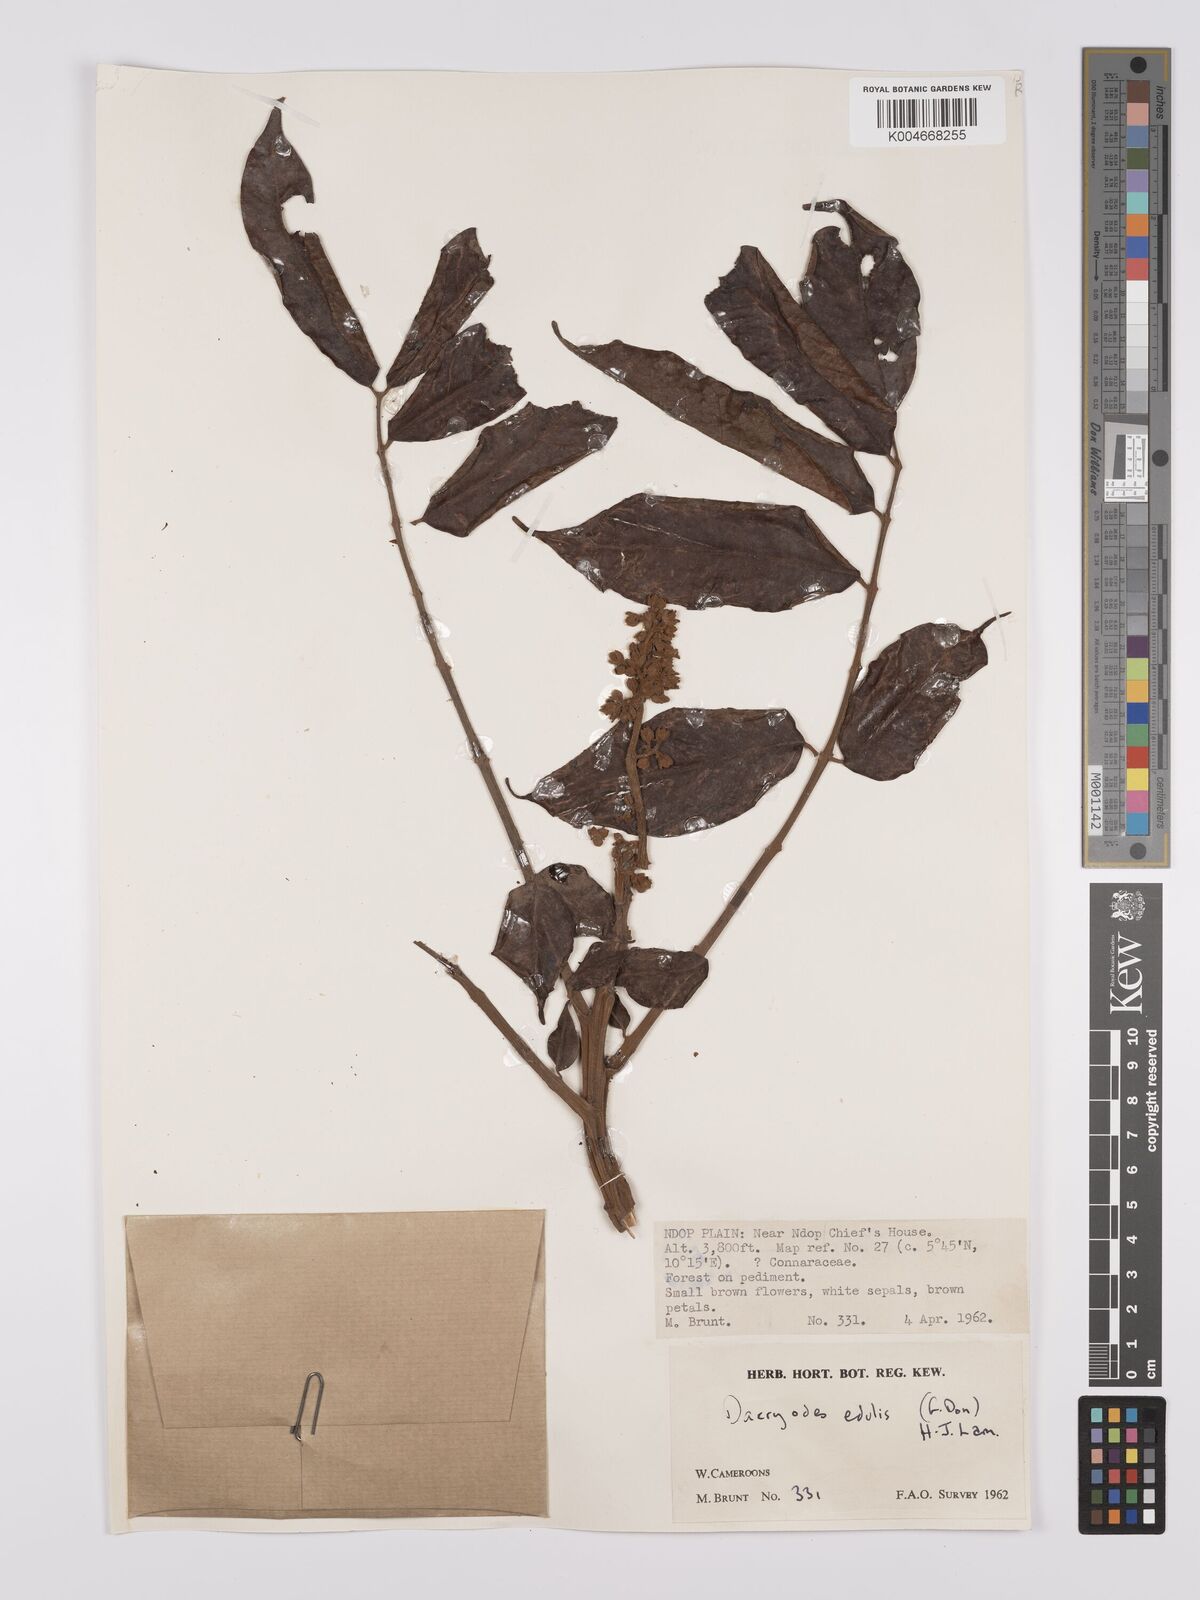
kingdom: Plantae
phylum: Tracheophyta
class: Magnoliopsida
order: Sapindales
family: Burseraceae
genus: Pachylobus
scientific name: Pachylobus edulis
